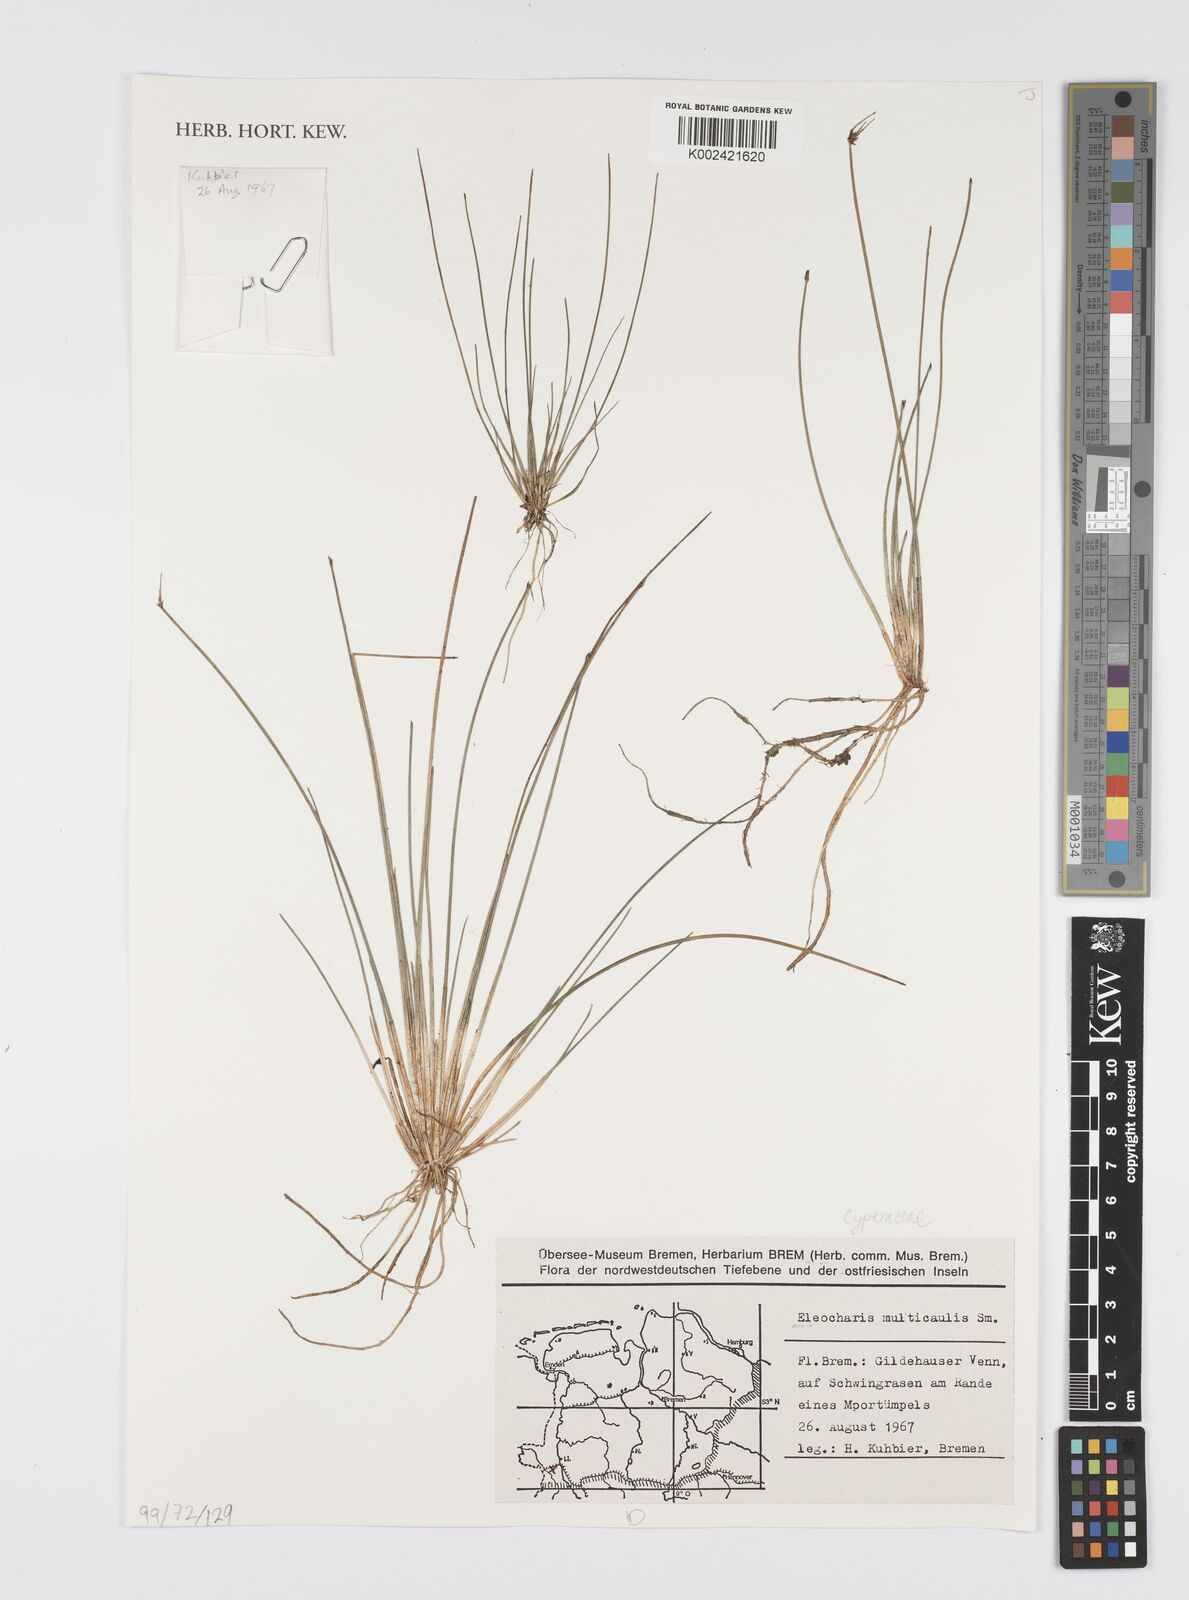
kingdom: Plantae
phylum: Tracheophyta
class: Liliopsida
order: Poales
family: Cyperaceae
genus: Eleocharis
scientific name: Eleocharis multicaulis
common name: Many-stalked spike-rush
